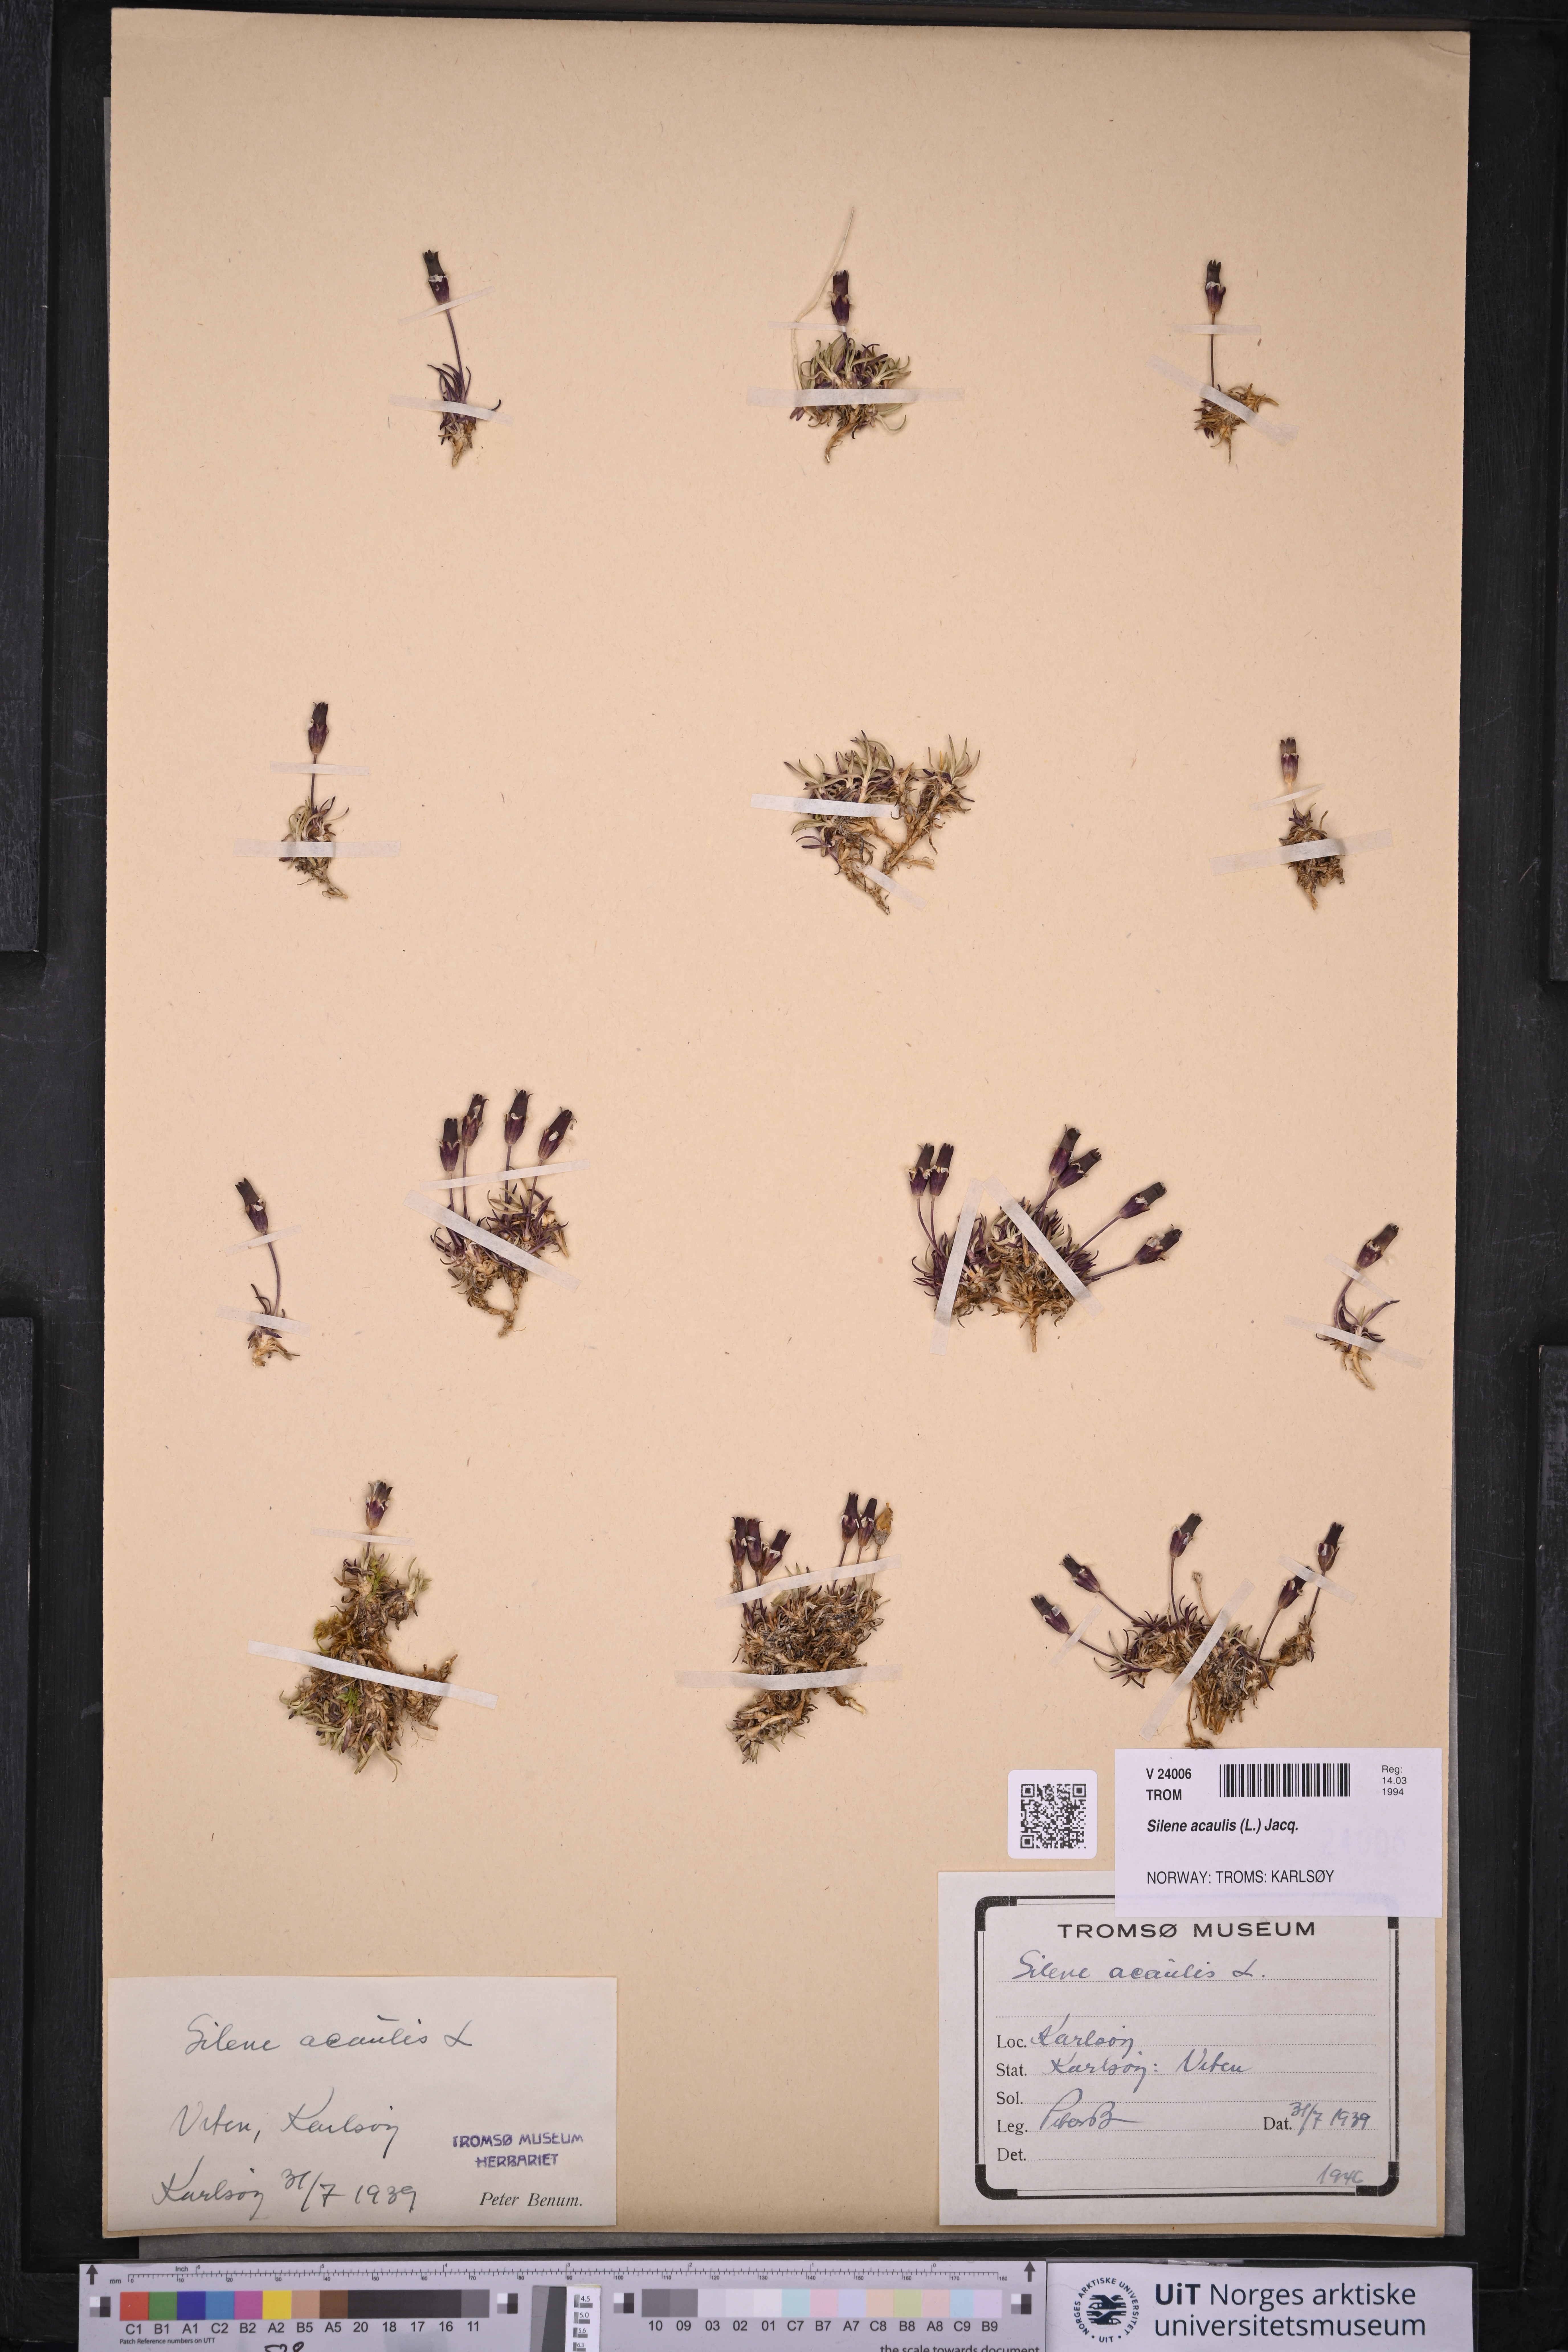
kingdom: Plantae
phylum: Tracheophyta
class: Magnoliopsida
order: Caryophyllales
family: Caryophyllaceae
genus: Silene
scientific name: Silene acaulis
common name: Moss campion
